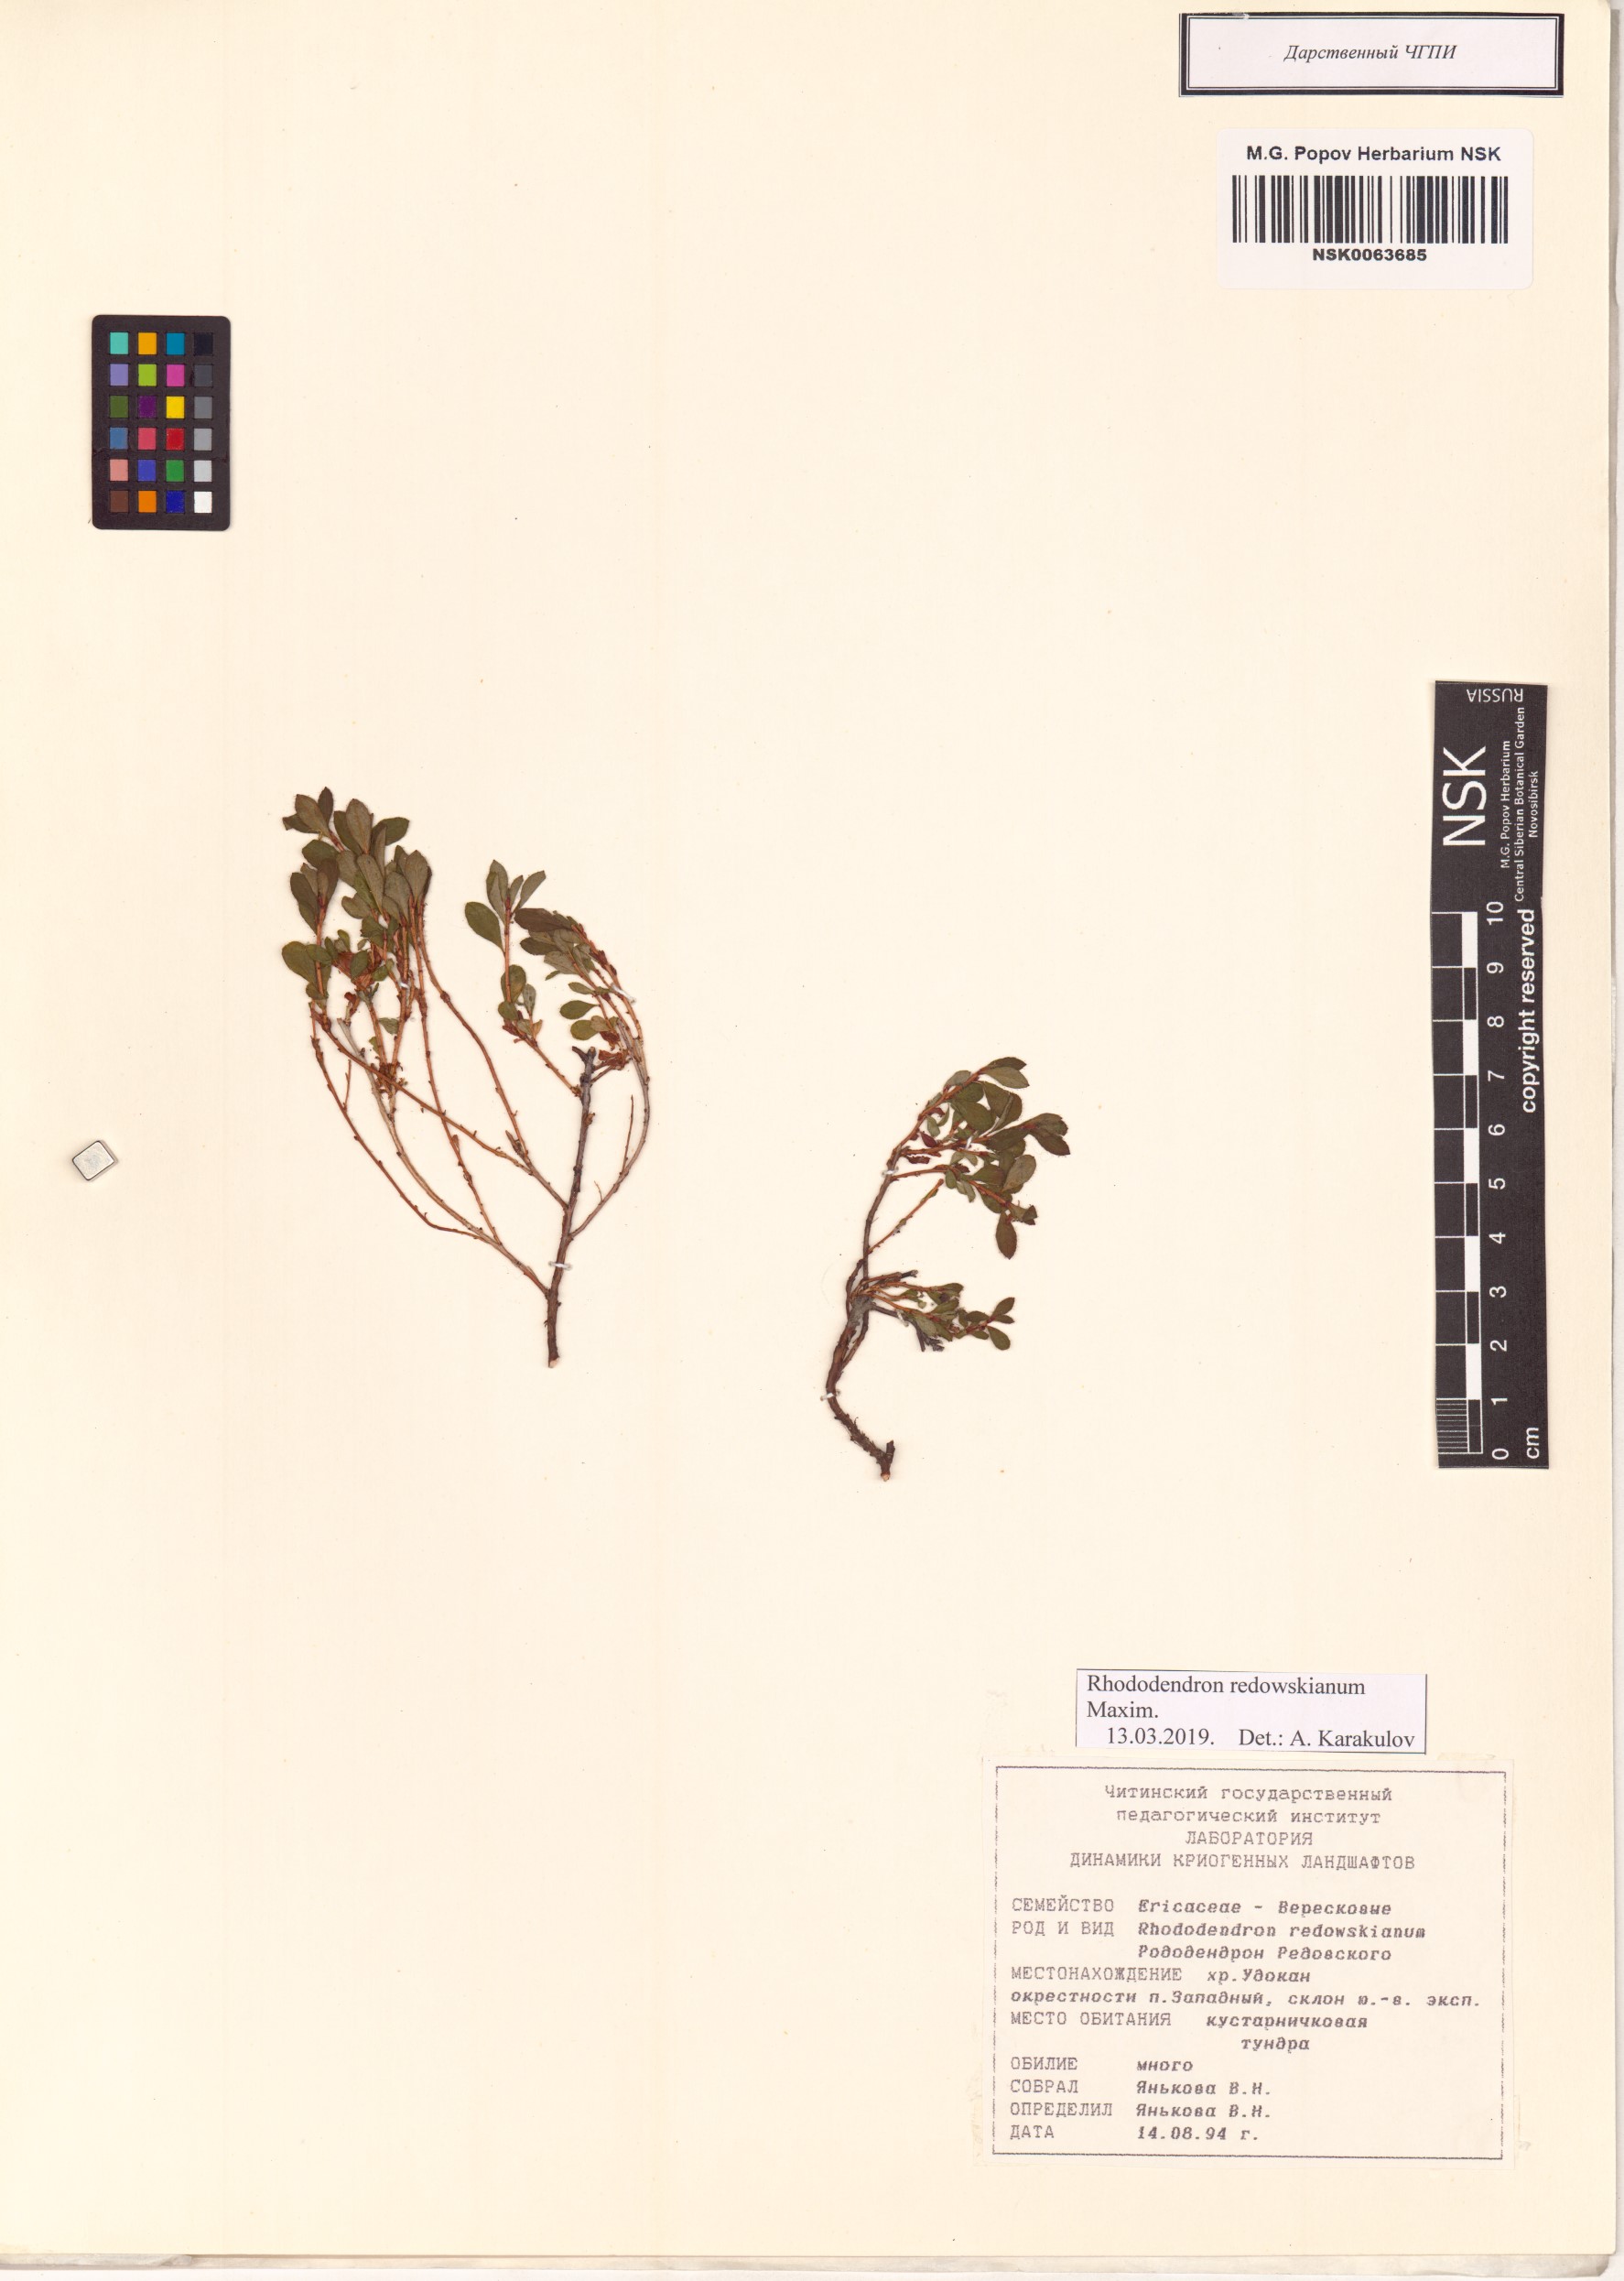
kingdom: Plantae
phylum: Tracheophyta
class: Magnoliopsida
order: Ericales
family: Ericaceae
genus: Rhododendron
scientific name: Rhododendron redowskianum
